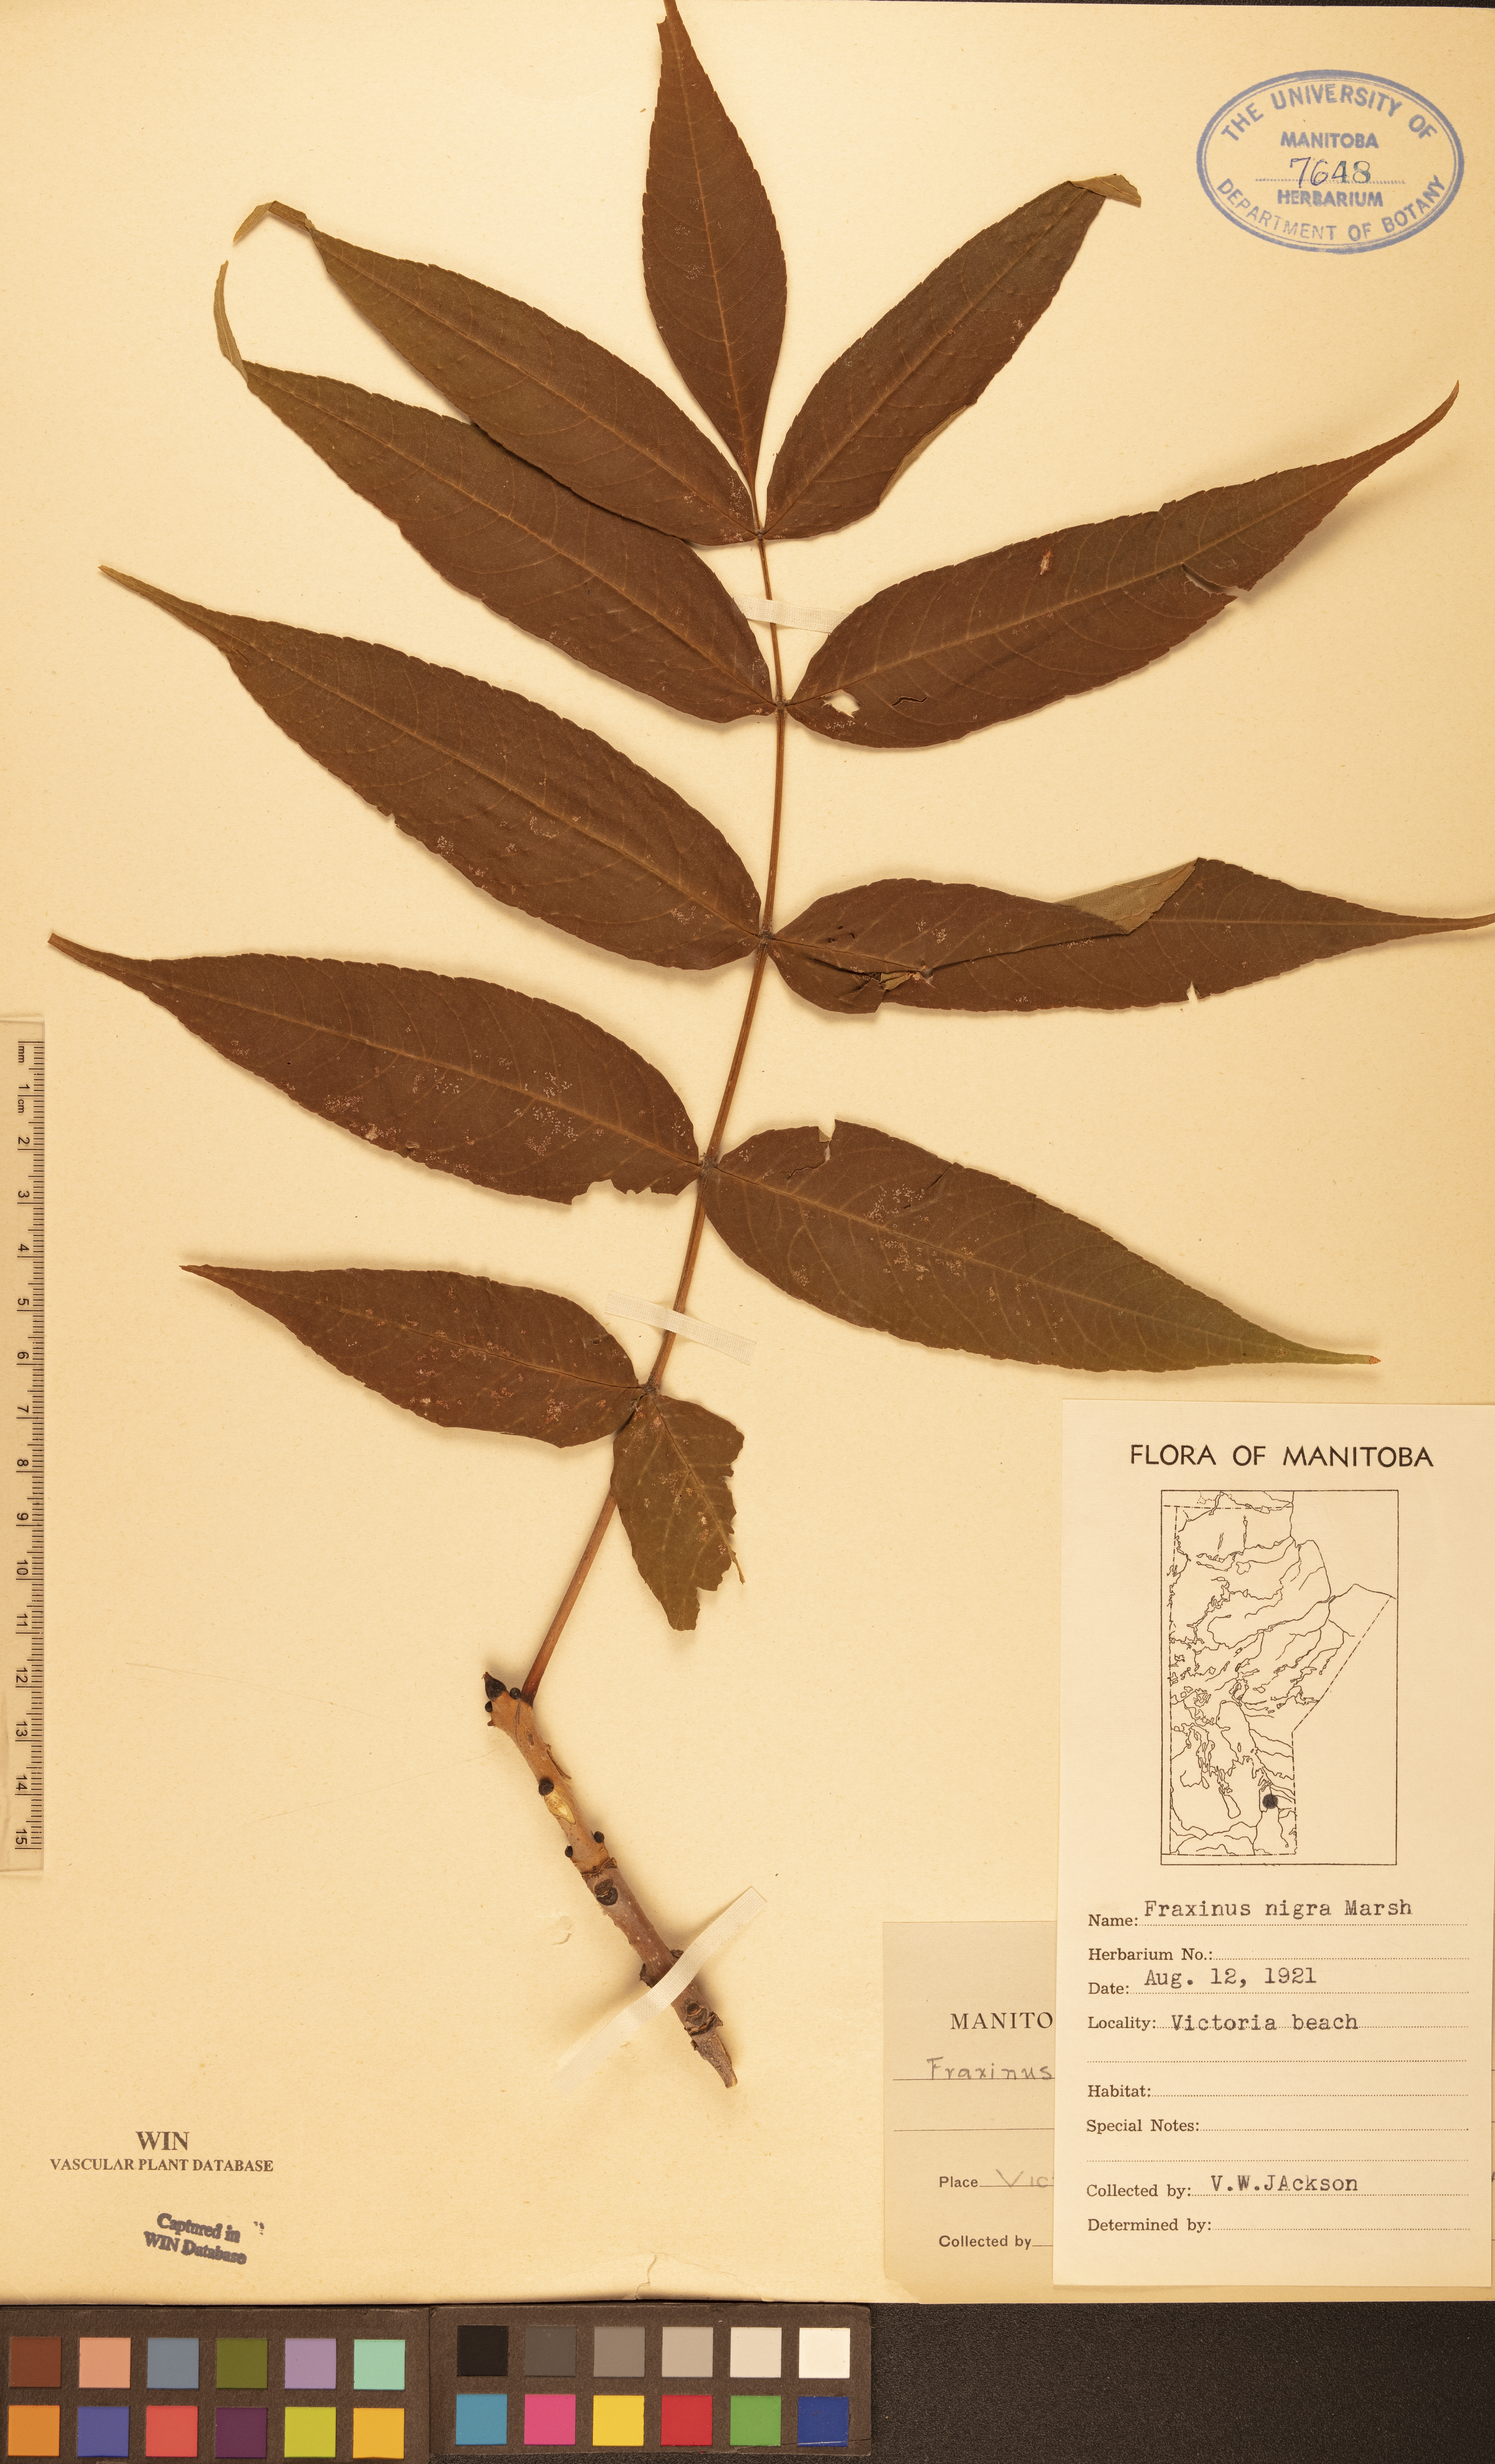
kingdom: Plantae
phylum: Tracheophyta
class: Magnoliopsida
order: Lamiales
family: Oleaceae
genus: Fraxinus
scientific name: Fraxinus nigra
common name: Black ash
